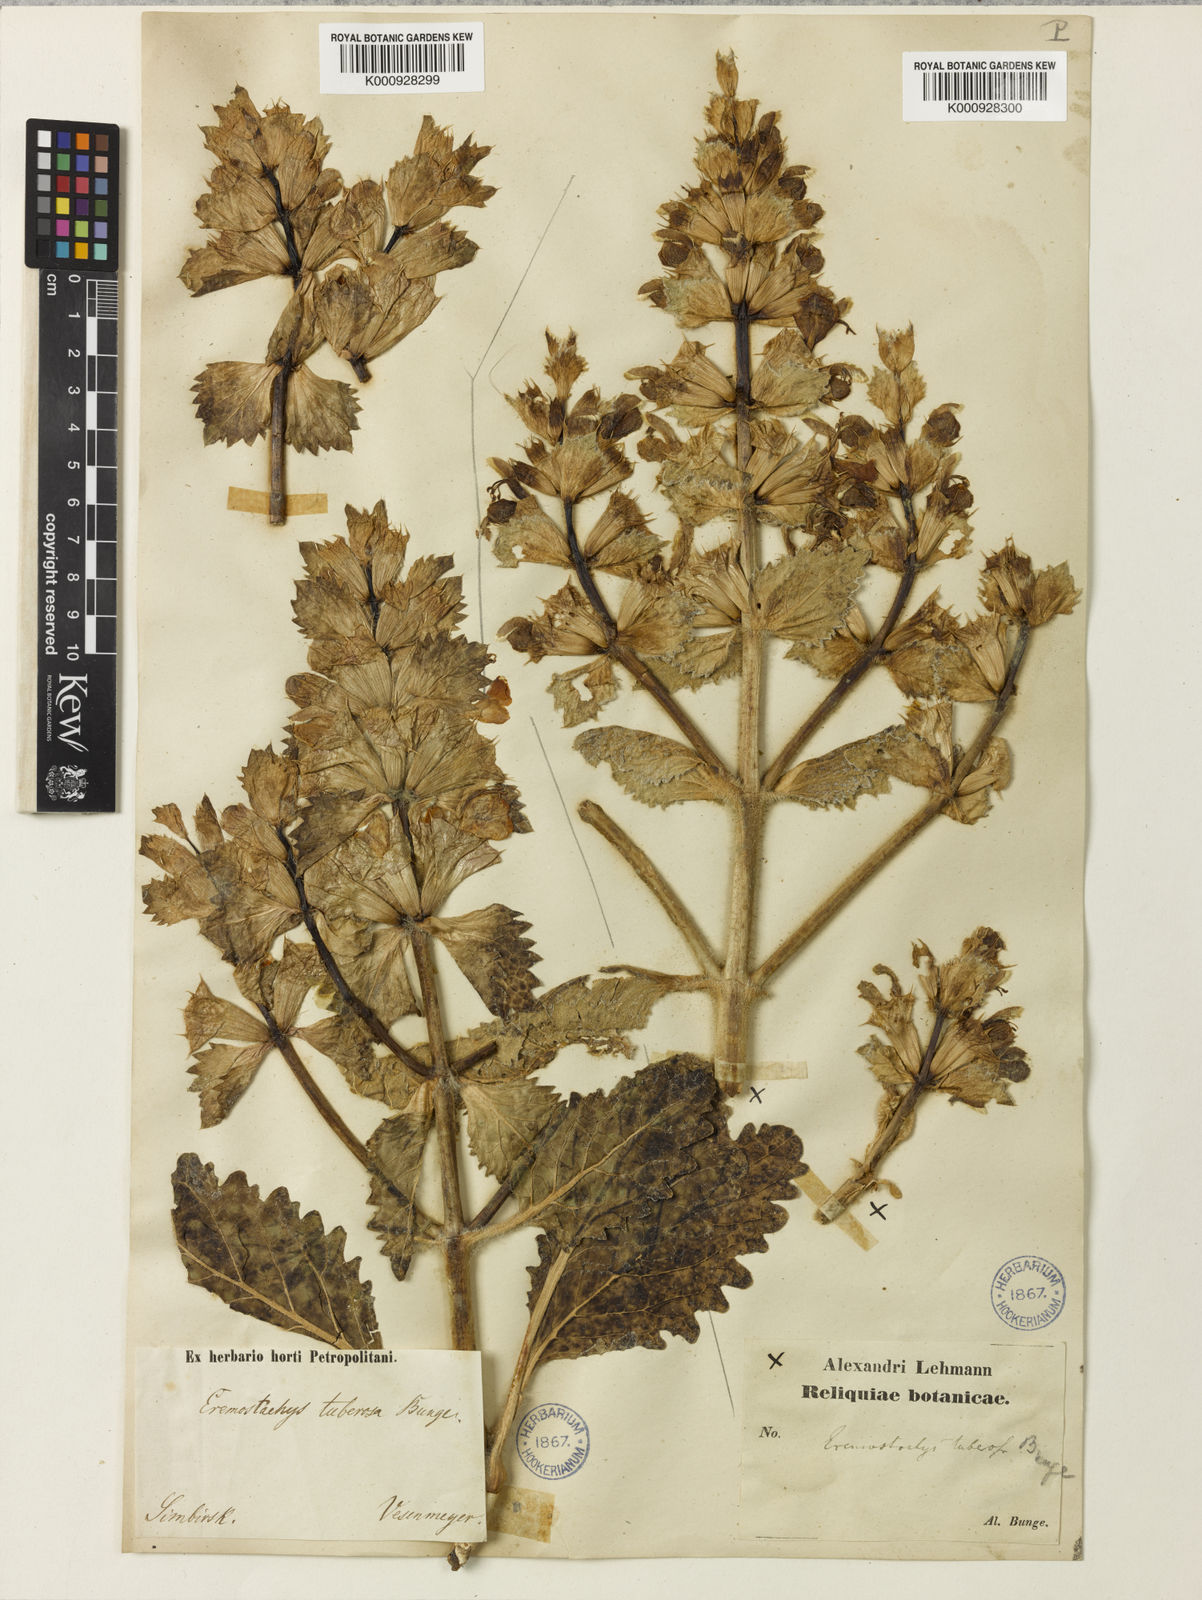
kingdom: Plantae
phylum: Tracheophyta
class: Magnoliopsida
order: Lamiales
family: Lamiaceae
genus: Phlomoides
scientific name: Phlomoides uralensis
